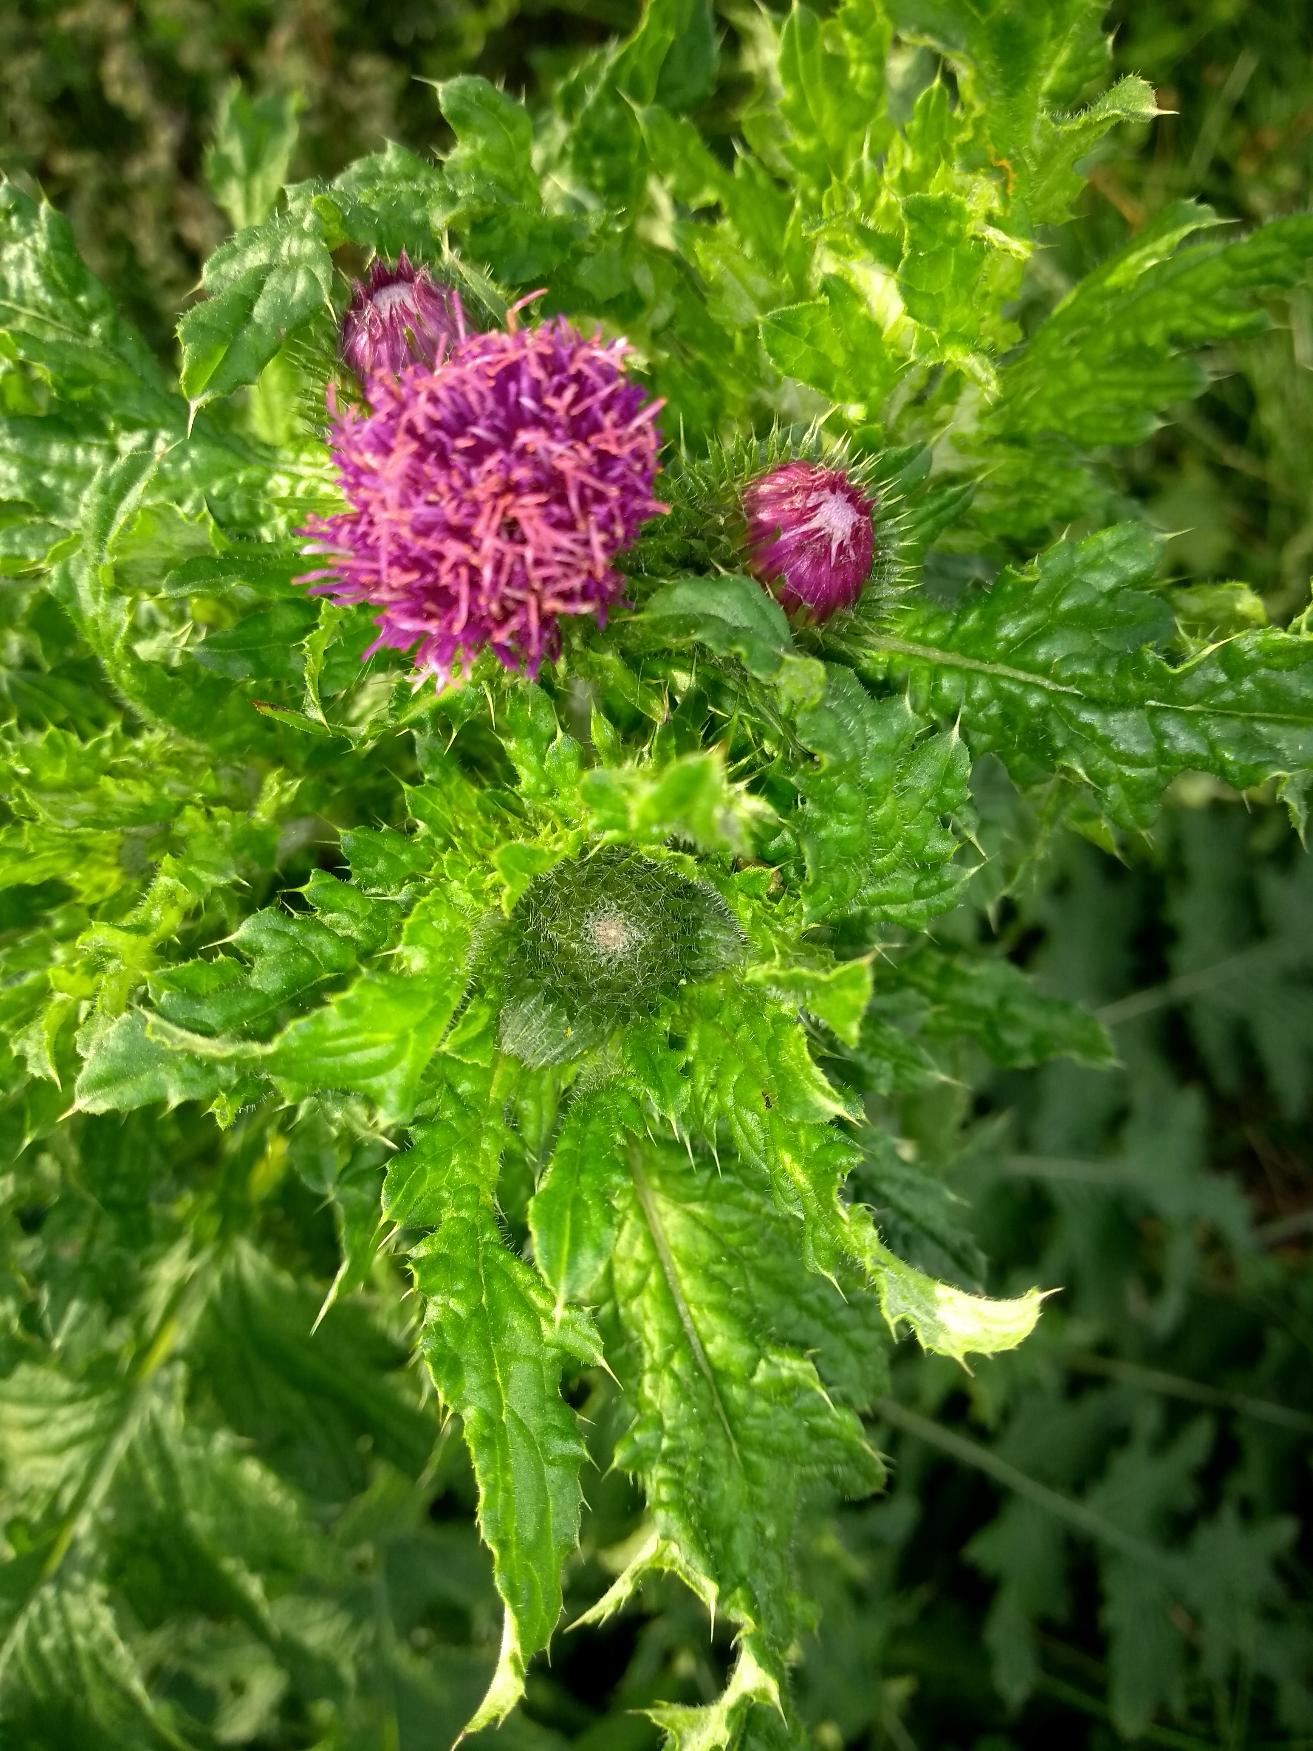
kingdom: Plantae
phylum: Tracheophyta
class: Magnoliopsida
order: Asterales
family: Asteraceae
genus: Carduus
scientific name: Carduus crispus
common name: Kruset tidsel
